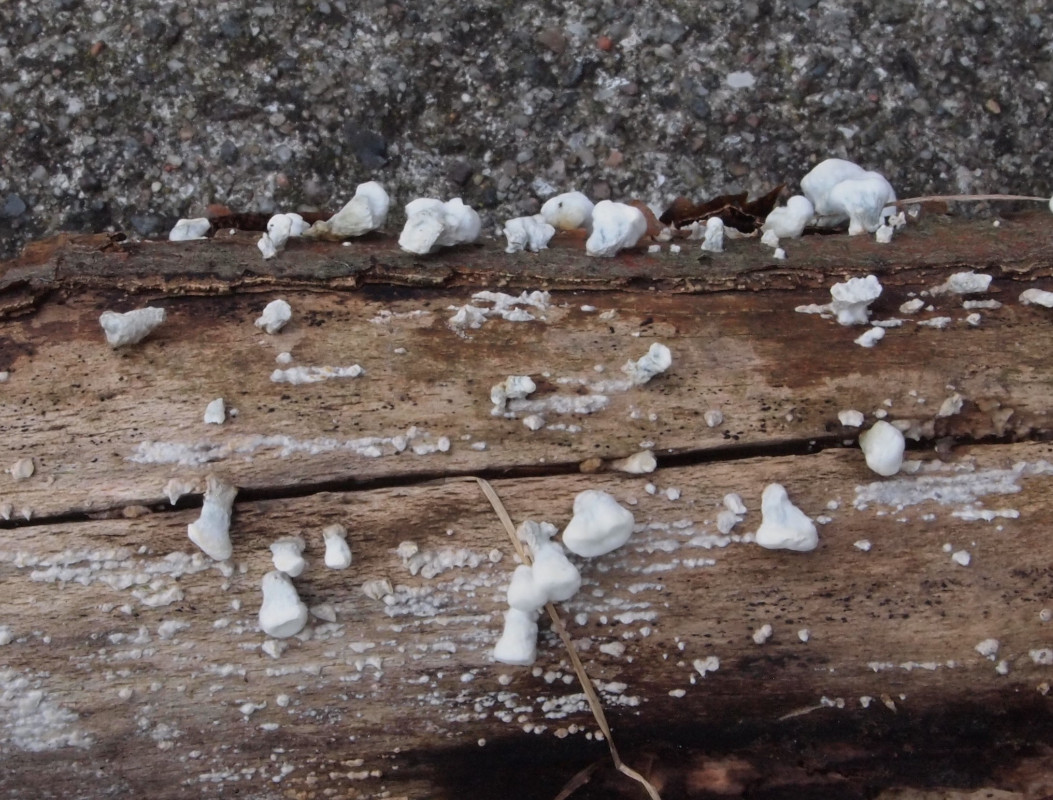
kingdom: Fungi
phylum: Basidiomycota
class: Agaricomycetes
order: Amylocorticiales
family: Amylocorticiaceae
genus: Plicaturopsis
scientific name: Plicaturopsis crispa
